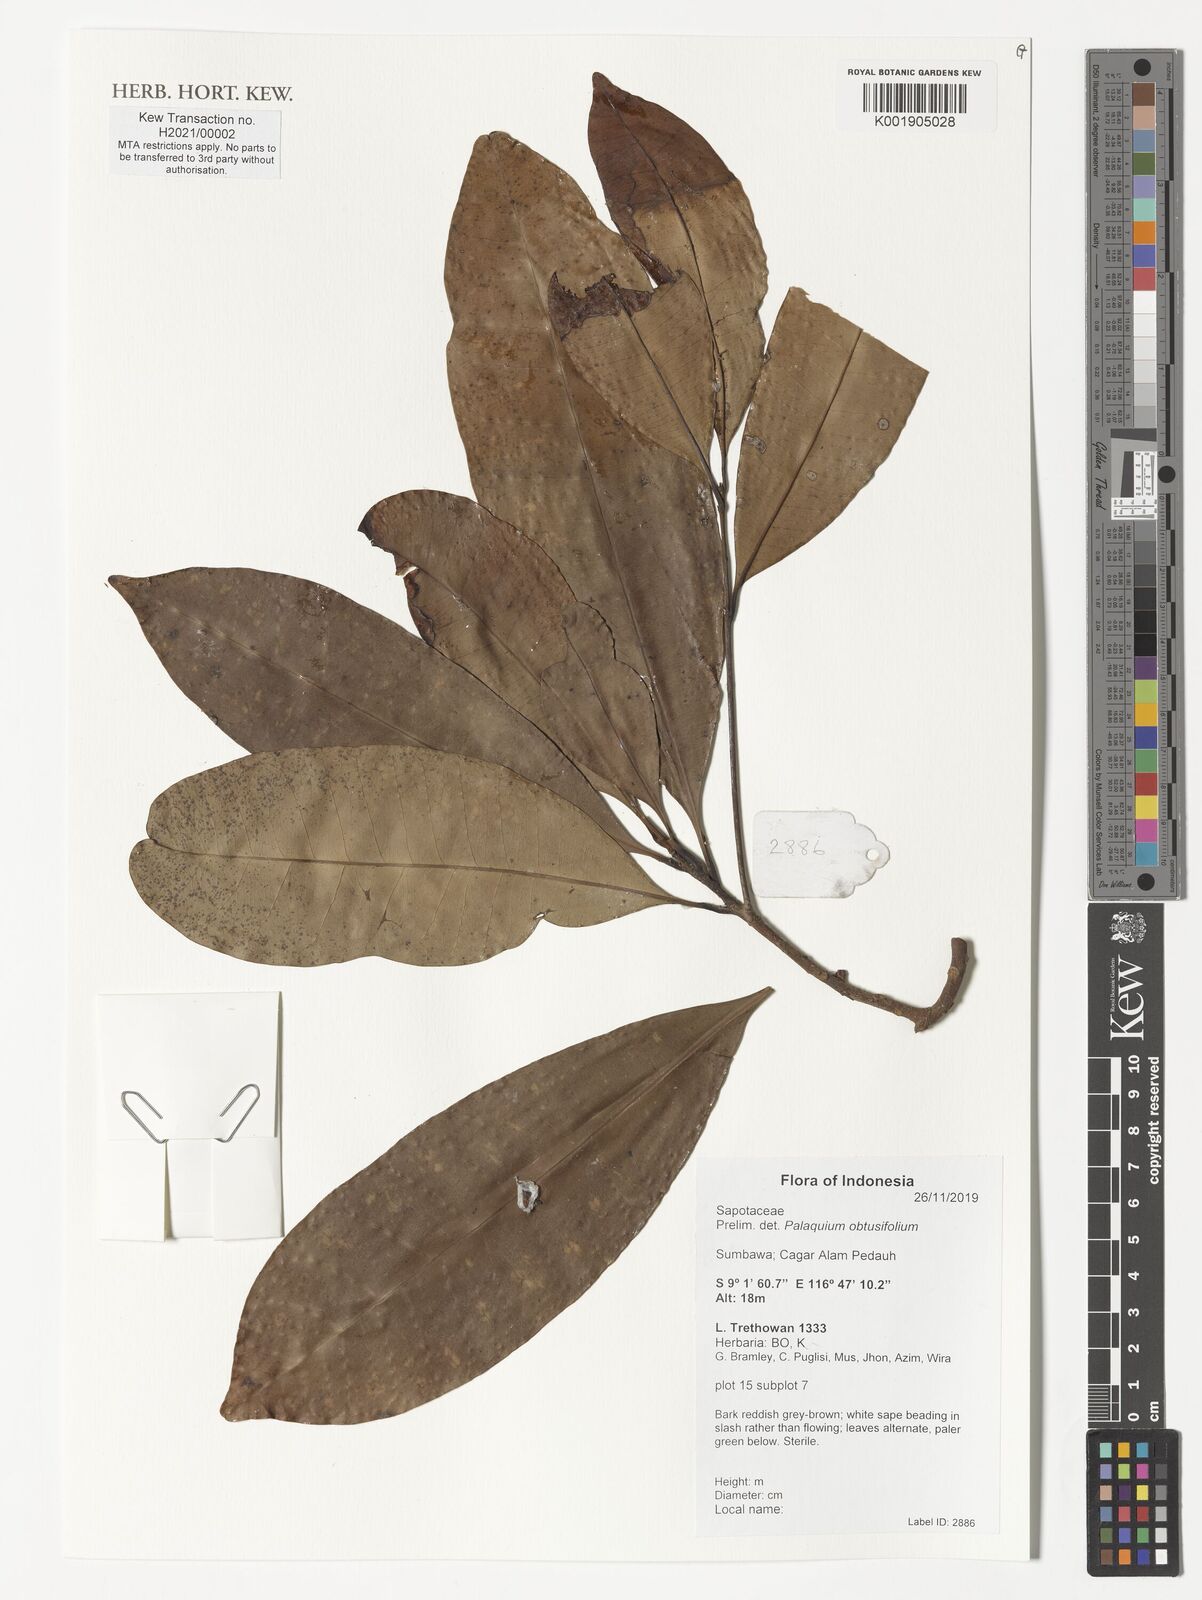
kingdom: Plantae
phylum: Tracheophyta
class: Magnoliopsida
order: Ericales
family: Sapotaceae
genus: Palaquium
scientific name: Palaquium obtusifolium
